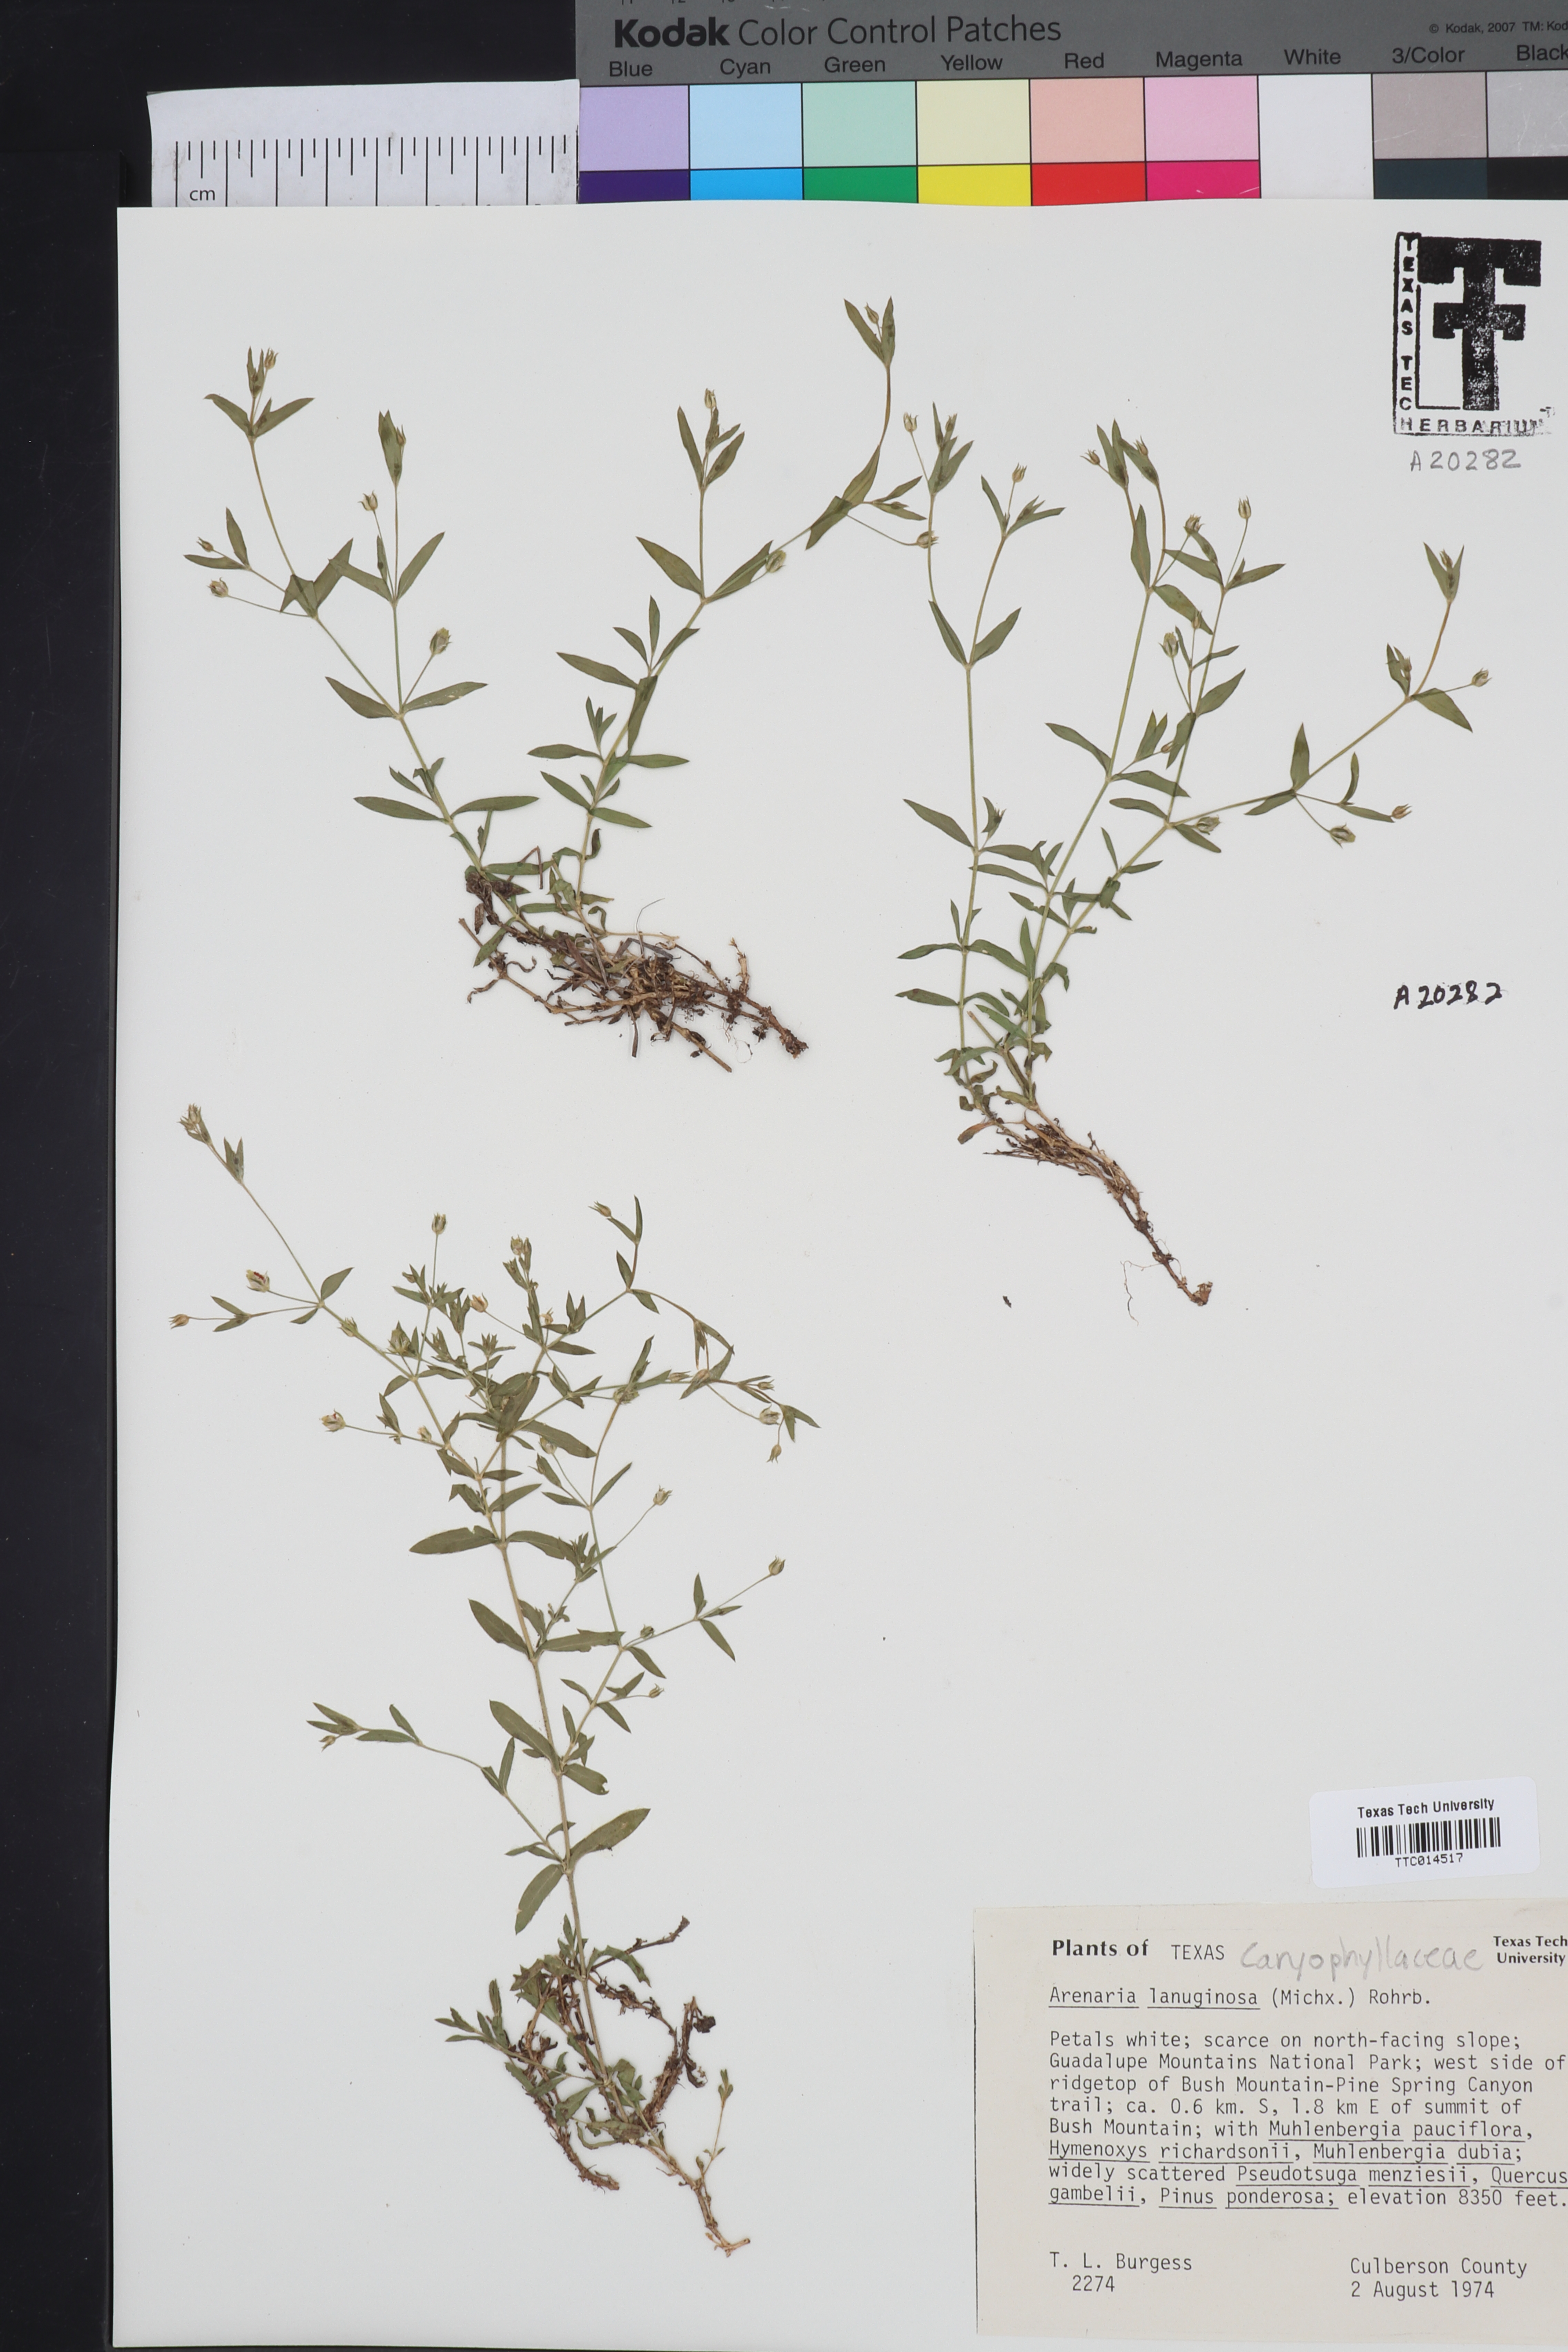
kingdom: Plantae
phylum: Tracheophyta
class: Magnoliopsida
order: Caryophyllales
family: Caryophyllaceae
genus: Arenaria
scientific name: Arenaria lanuginosa
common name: Spread sandwort
